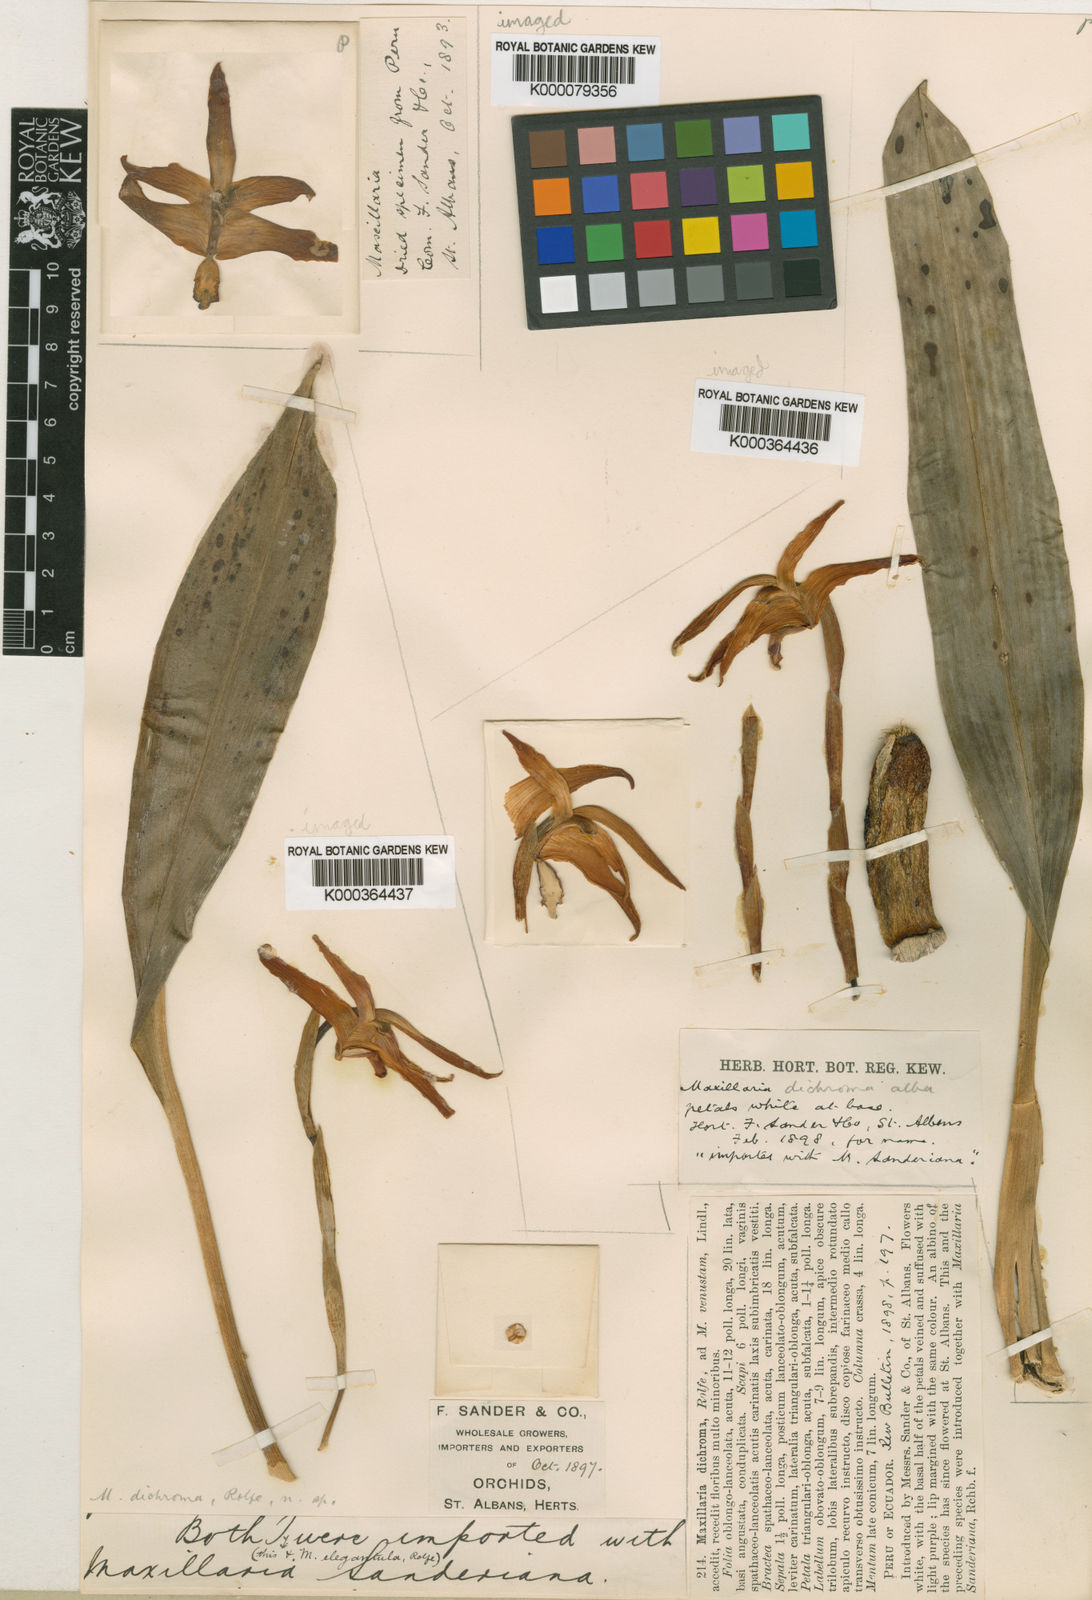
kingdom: Plantae
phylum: Tracheophyta
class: Liliopsida
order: Asparagales
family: Orchidaceae
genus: Maxillaria
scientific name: Maxillaria dichroma
